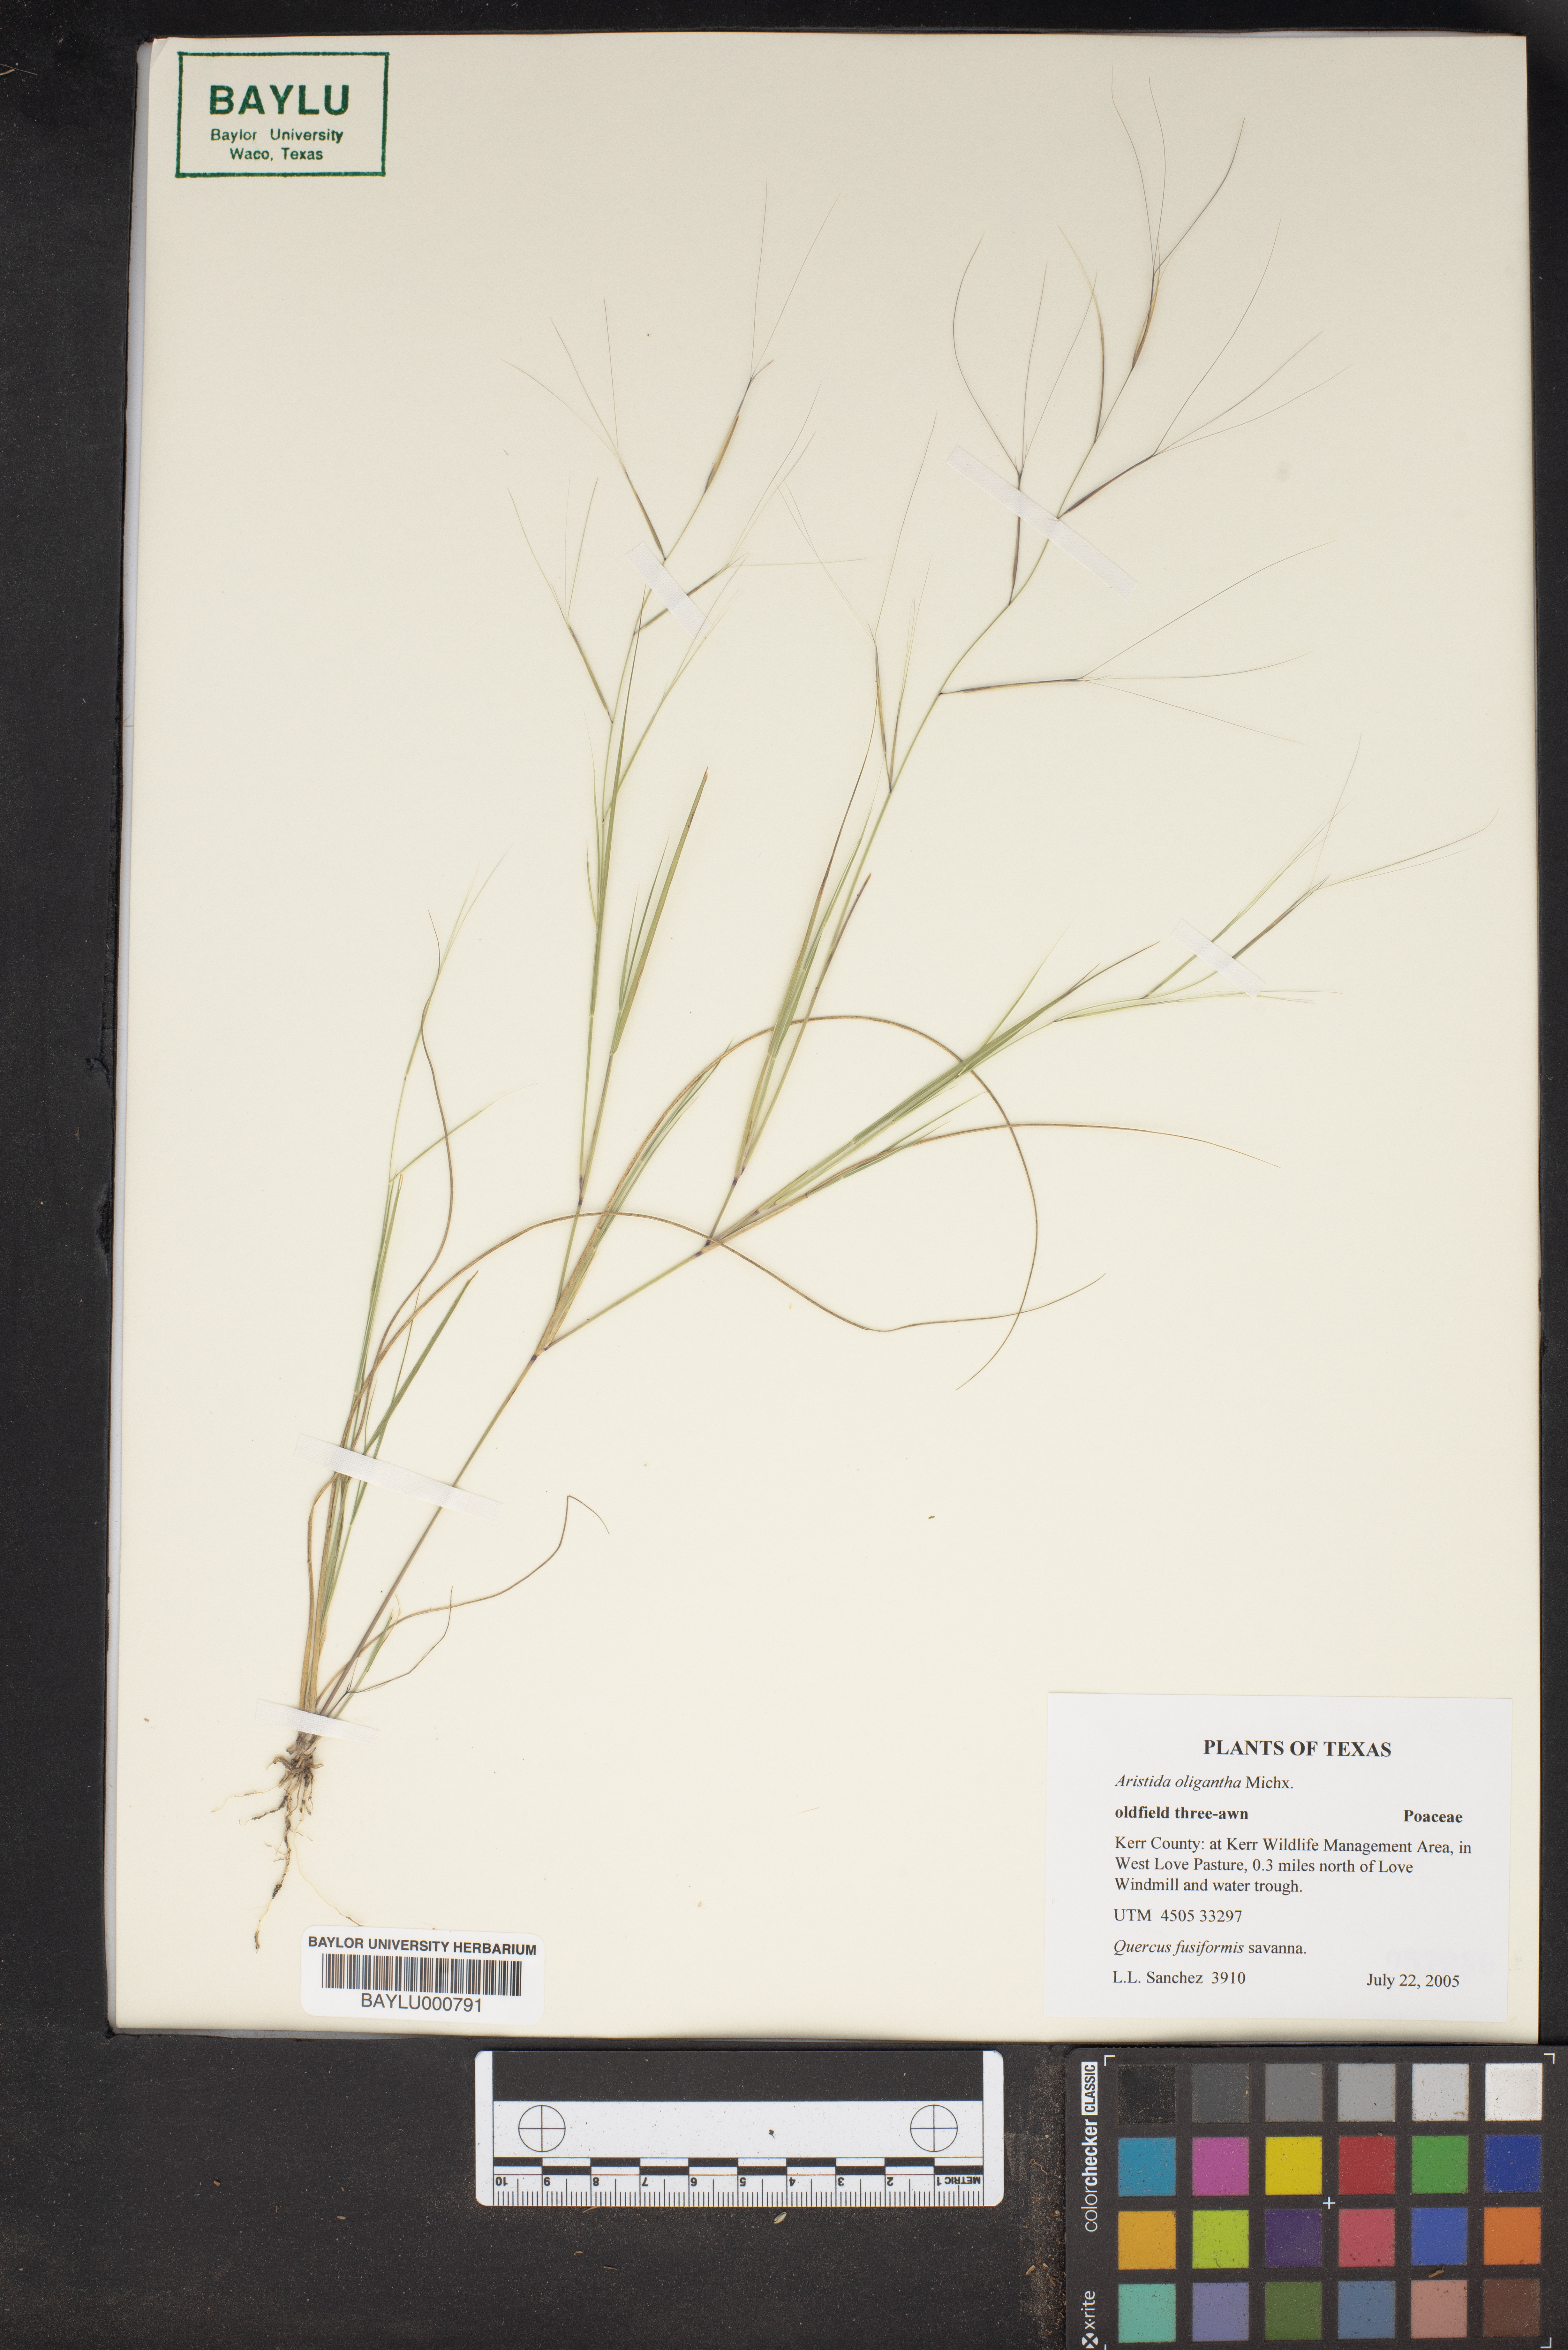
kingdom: Plantae
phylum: Tracheophyta
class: Liliopsida
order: Poales
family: Poaceae
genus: Aristida
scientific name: Aristida oligantha
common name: Few-flowered aristida
